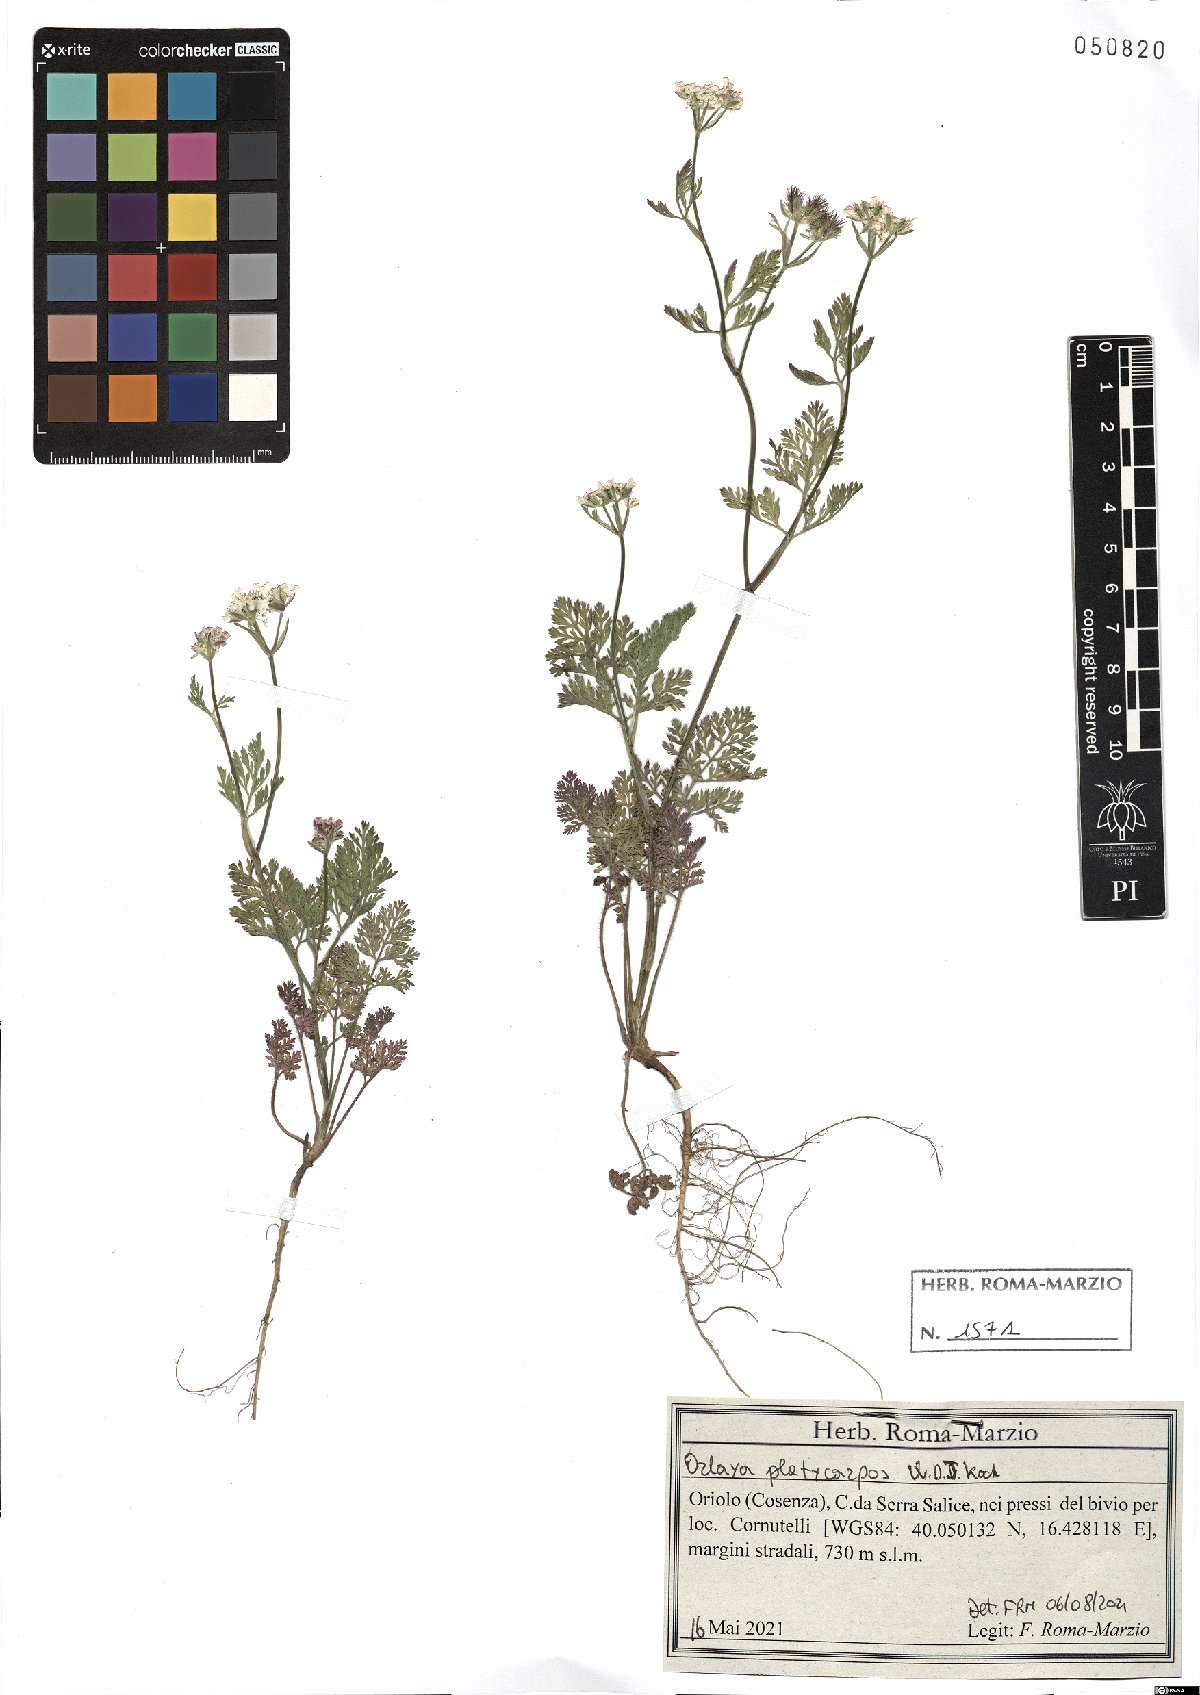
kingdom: Plantae
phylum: Tracheophyta
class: Magnoliopsida
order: Apiales
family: Apiaceae
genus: Orlaya
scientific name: Orlaya daucoides
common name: Flat-fruit orlaya
